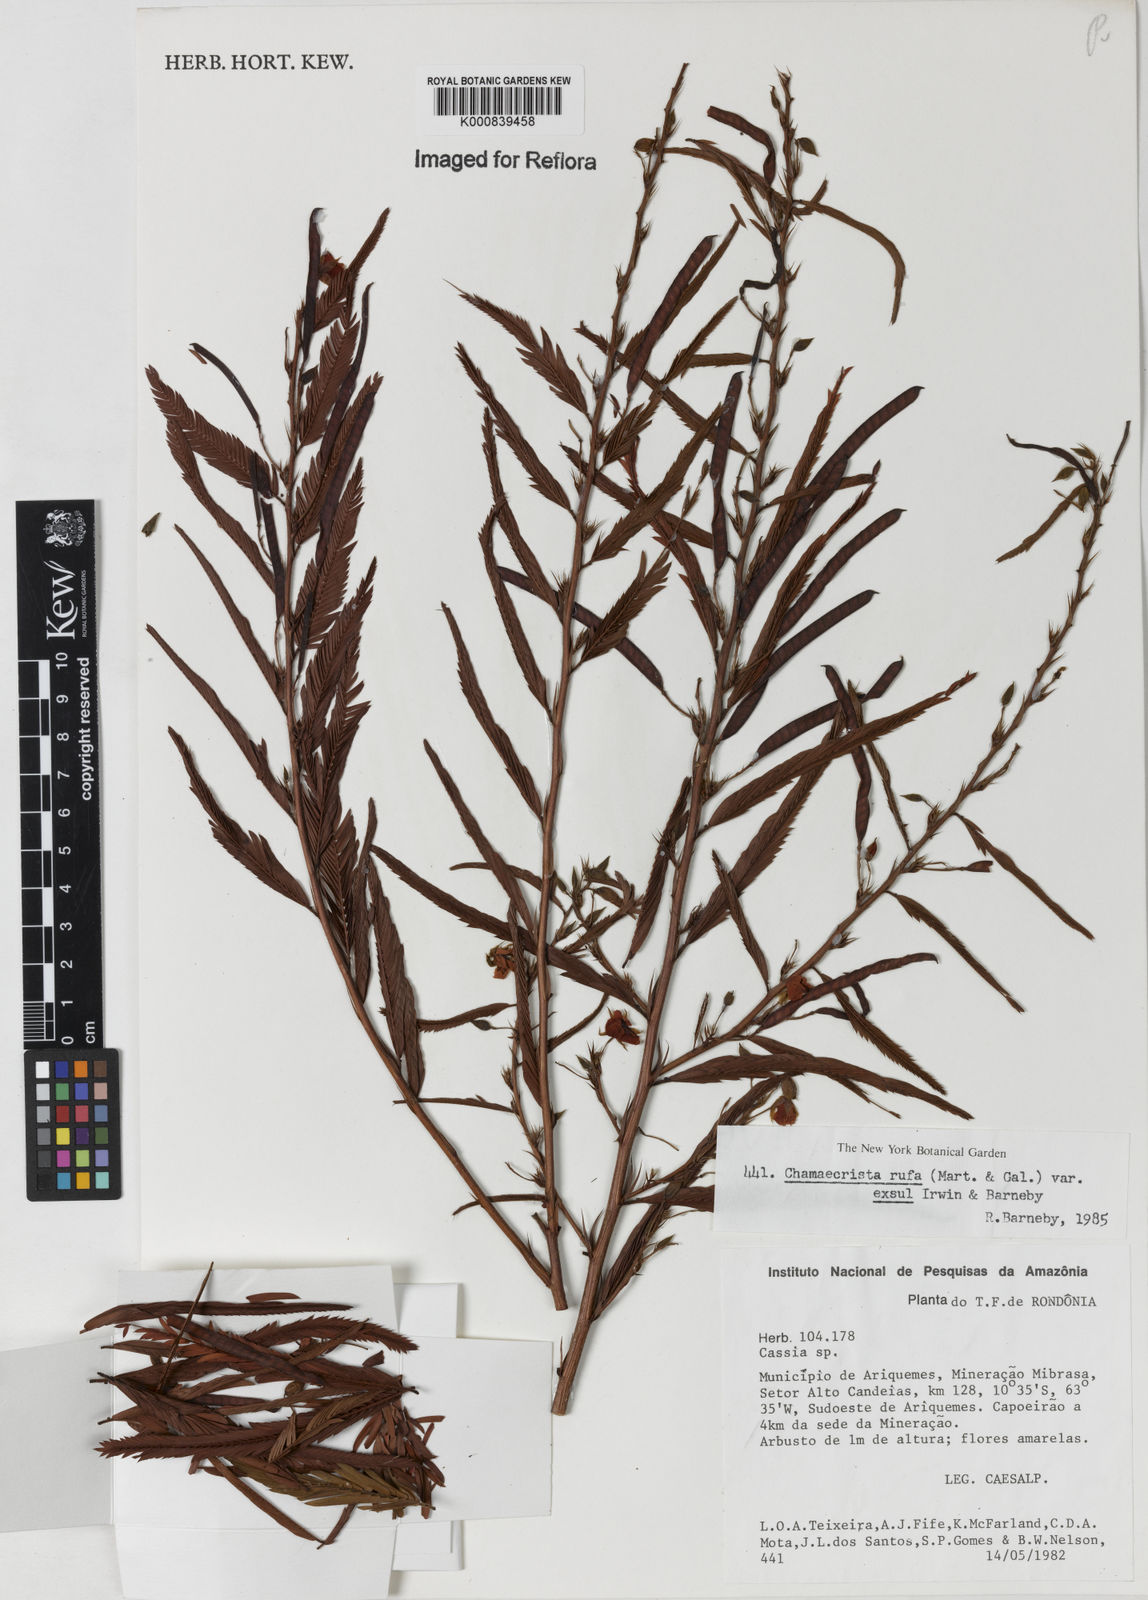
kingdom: Plantae
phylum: Tracheophyta
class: Magnoliopsida
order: Fabales
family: Fabaceae
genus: Chamaecrista
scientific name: Chamaecrista rufa
